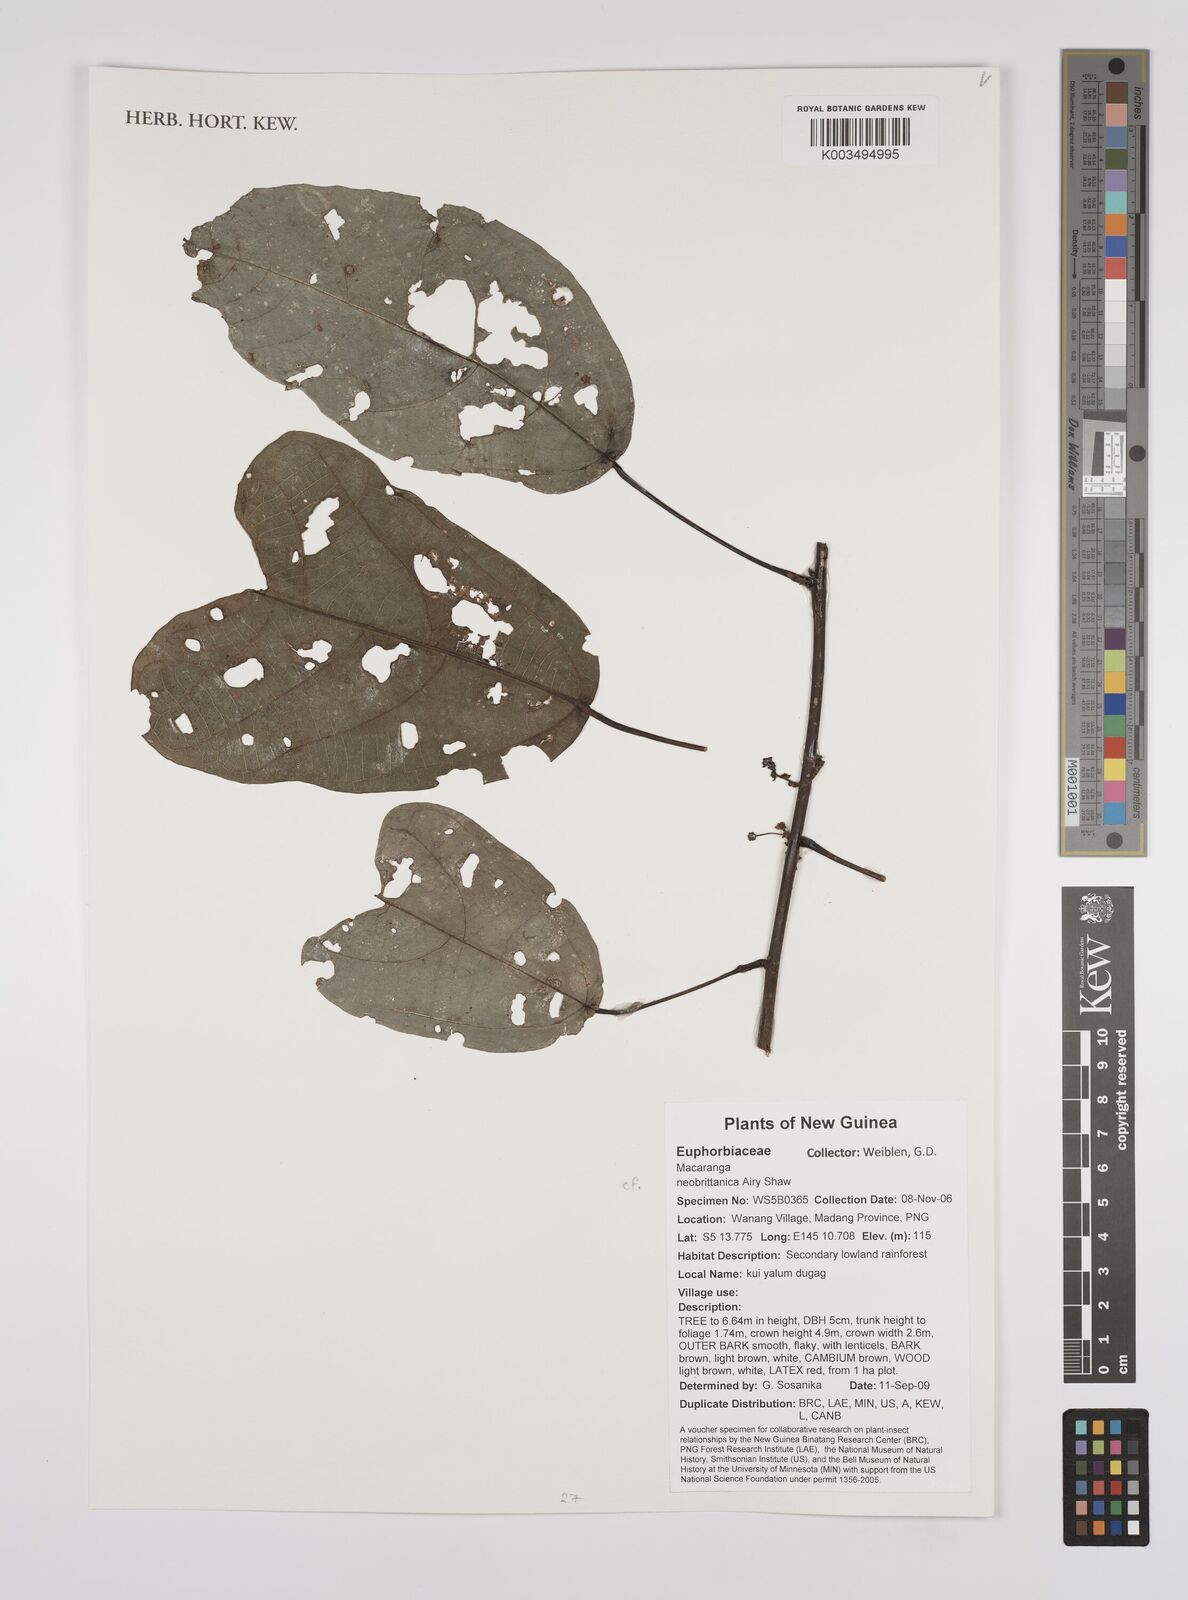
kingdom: Plantae
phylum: Tracheophyta
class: Magnoliopsida
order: Malpighiales
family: Euphorbiaceae
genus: Macaranga
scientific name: Macaranga neobritannica
